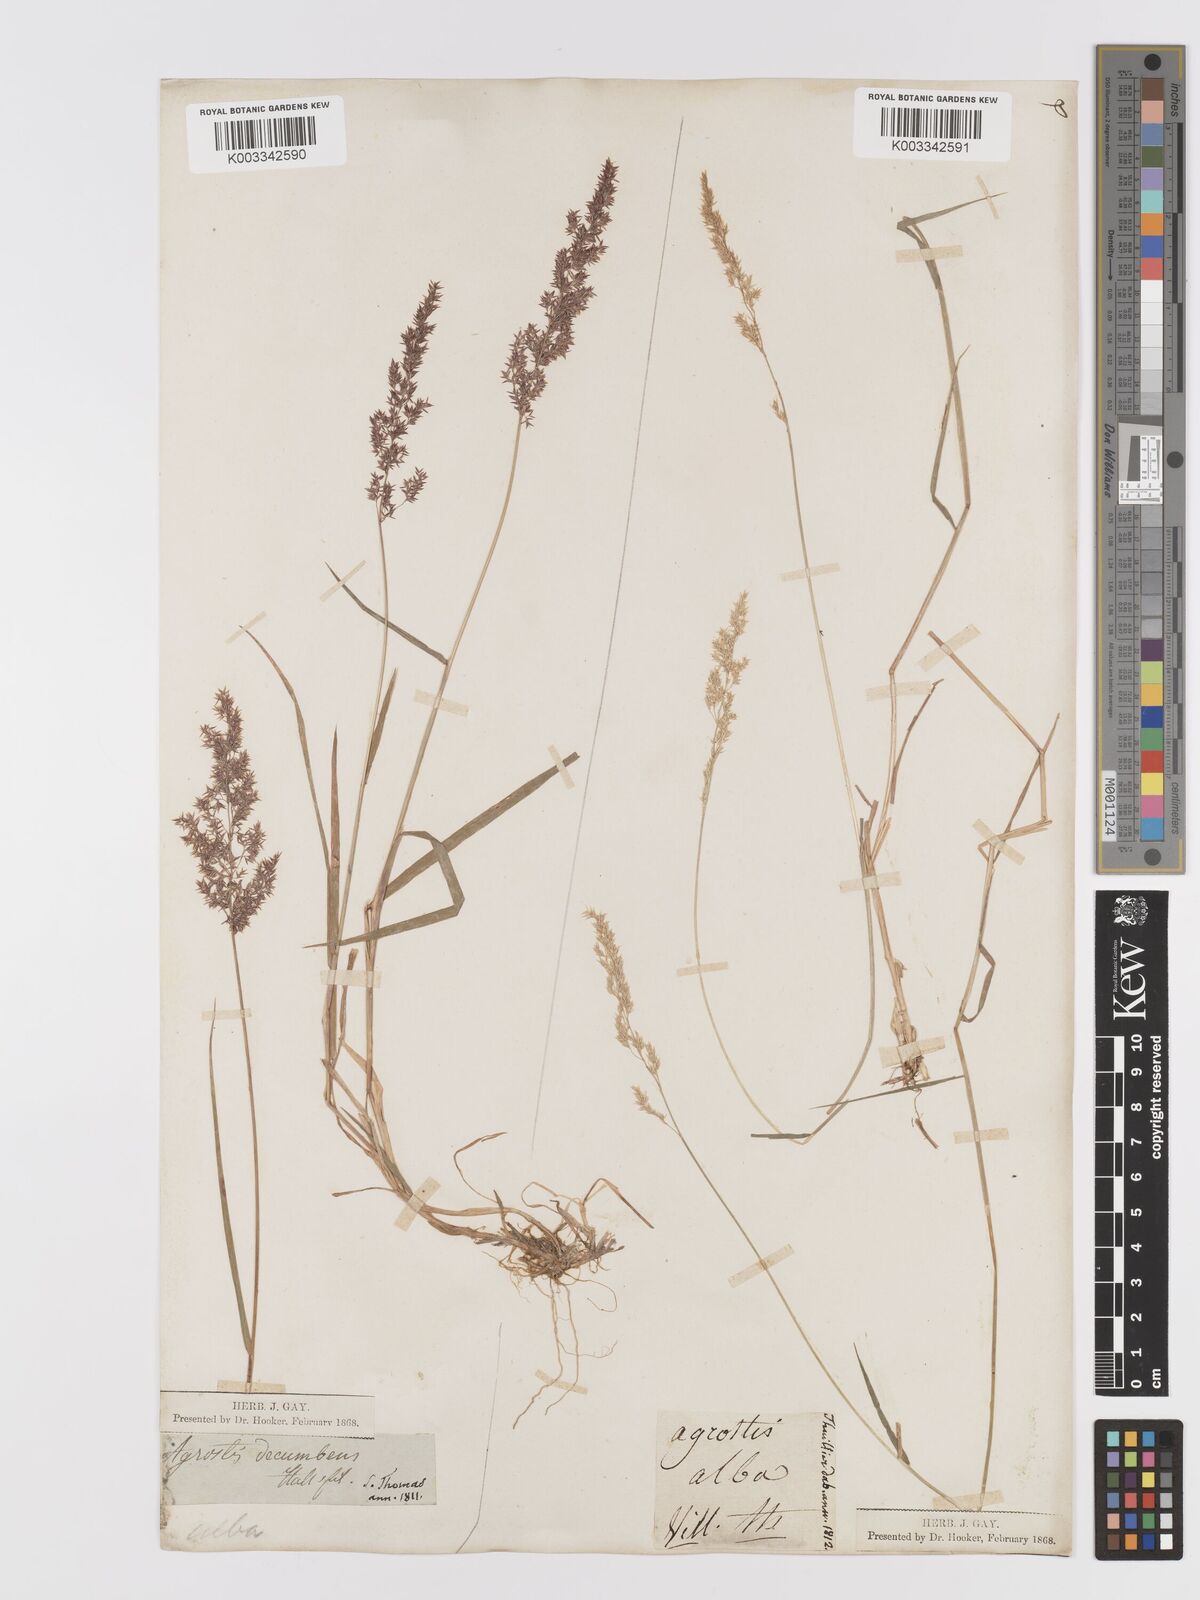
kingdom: Plantae
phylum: Tracheophyta
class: Liliopsida
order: Poales
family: Poaceae
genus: Agrostis
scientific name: Agrostis
